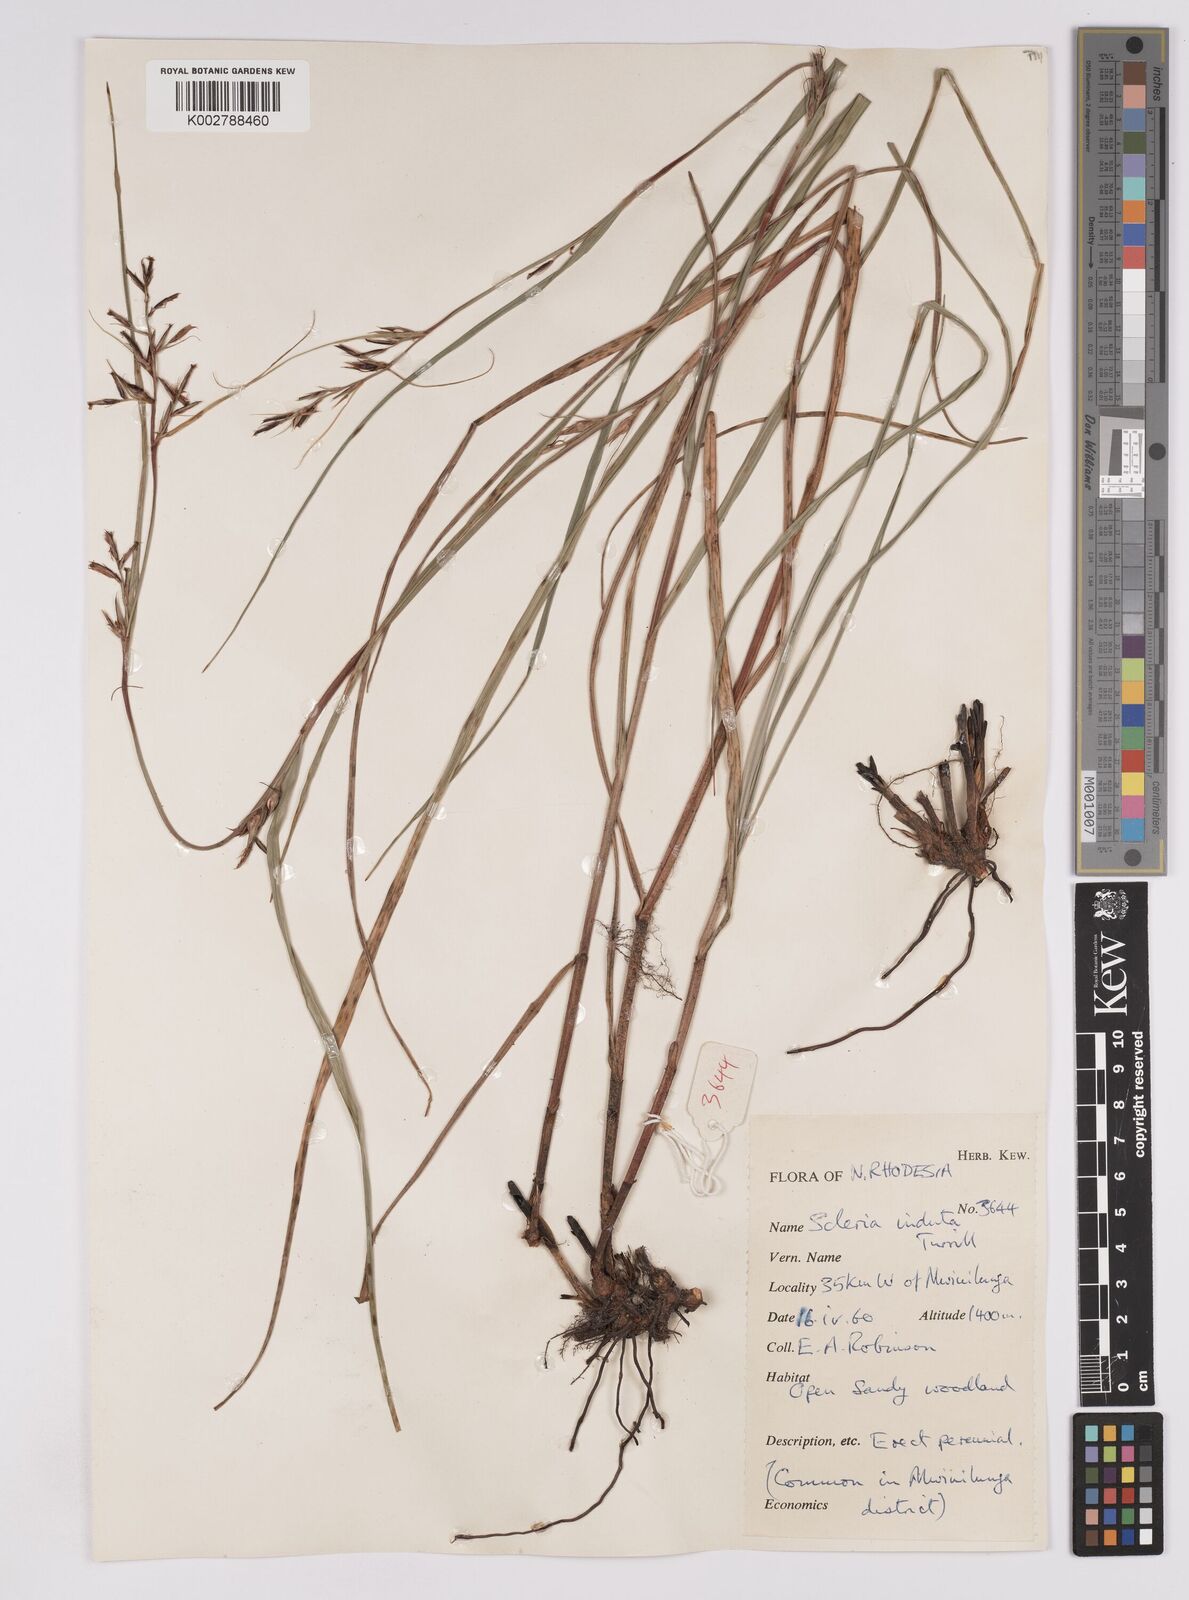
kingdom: Plantae
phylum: Tracheophyta
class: Liliopsida
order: Poales
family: Cyperaceae
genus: Scleria
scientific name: Scleria induta
